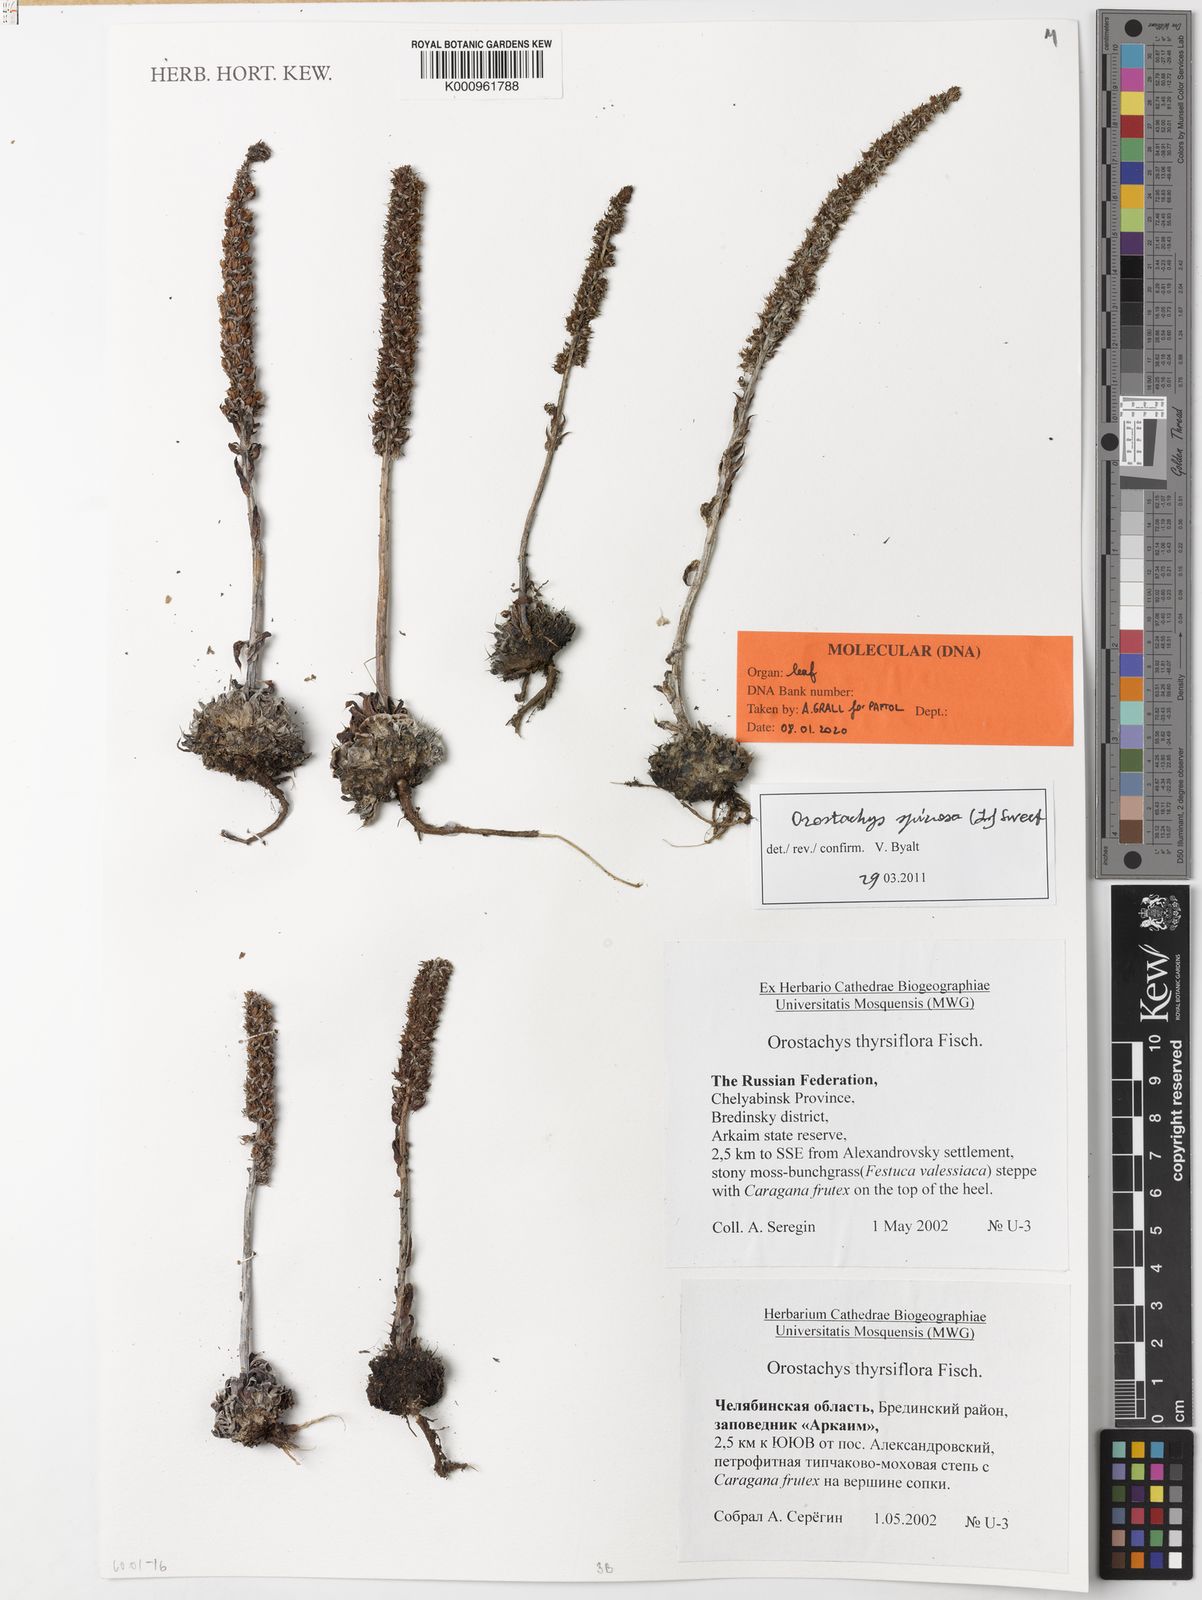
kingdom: Plantae
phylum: Tracheophyta
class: Magnoliopsida
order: Saxifragales
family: Crassulaceae
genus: Orostachys
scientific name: Orostachys spinosa
